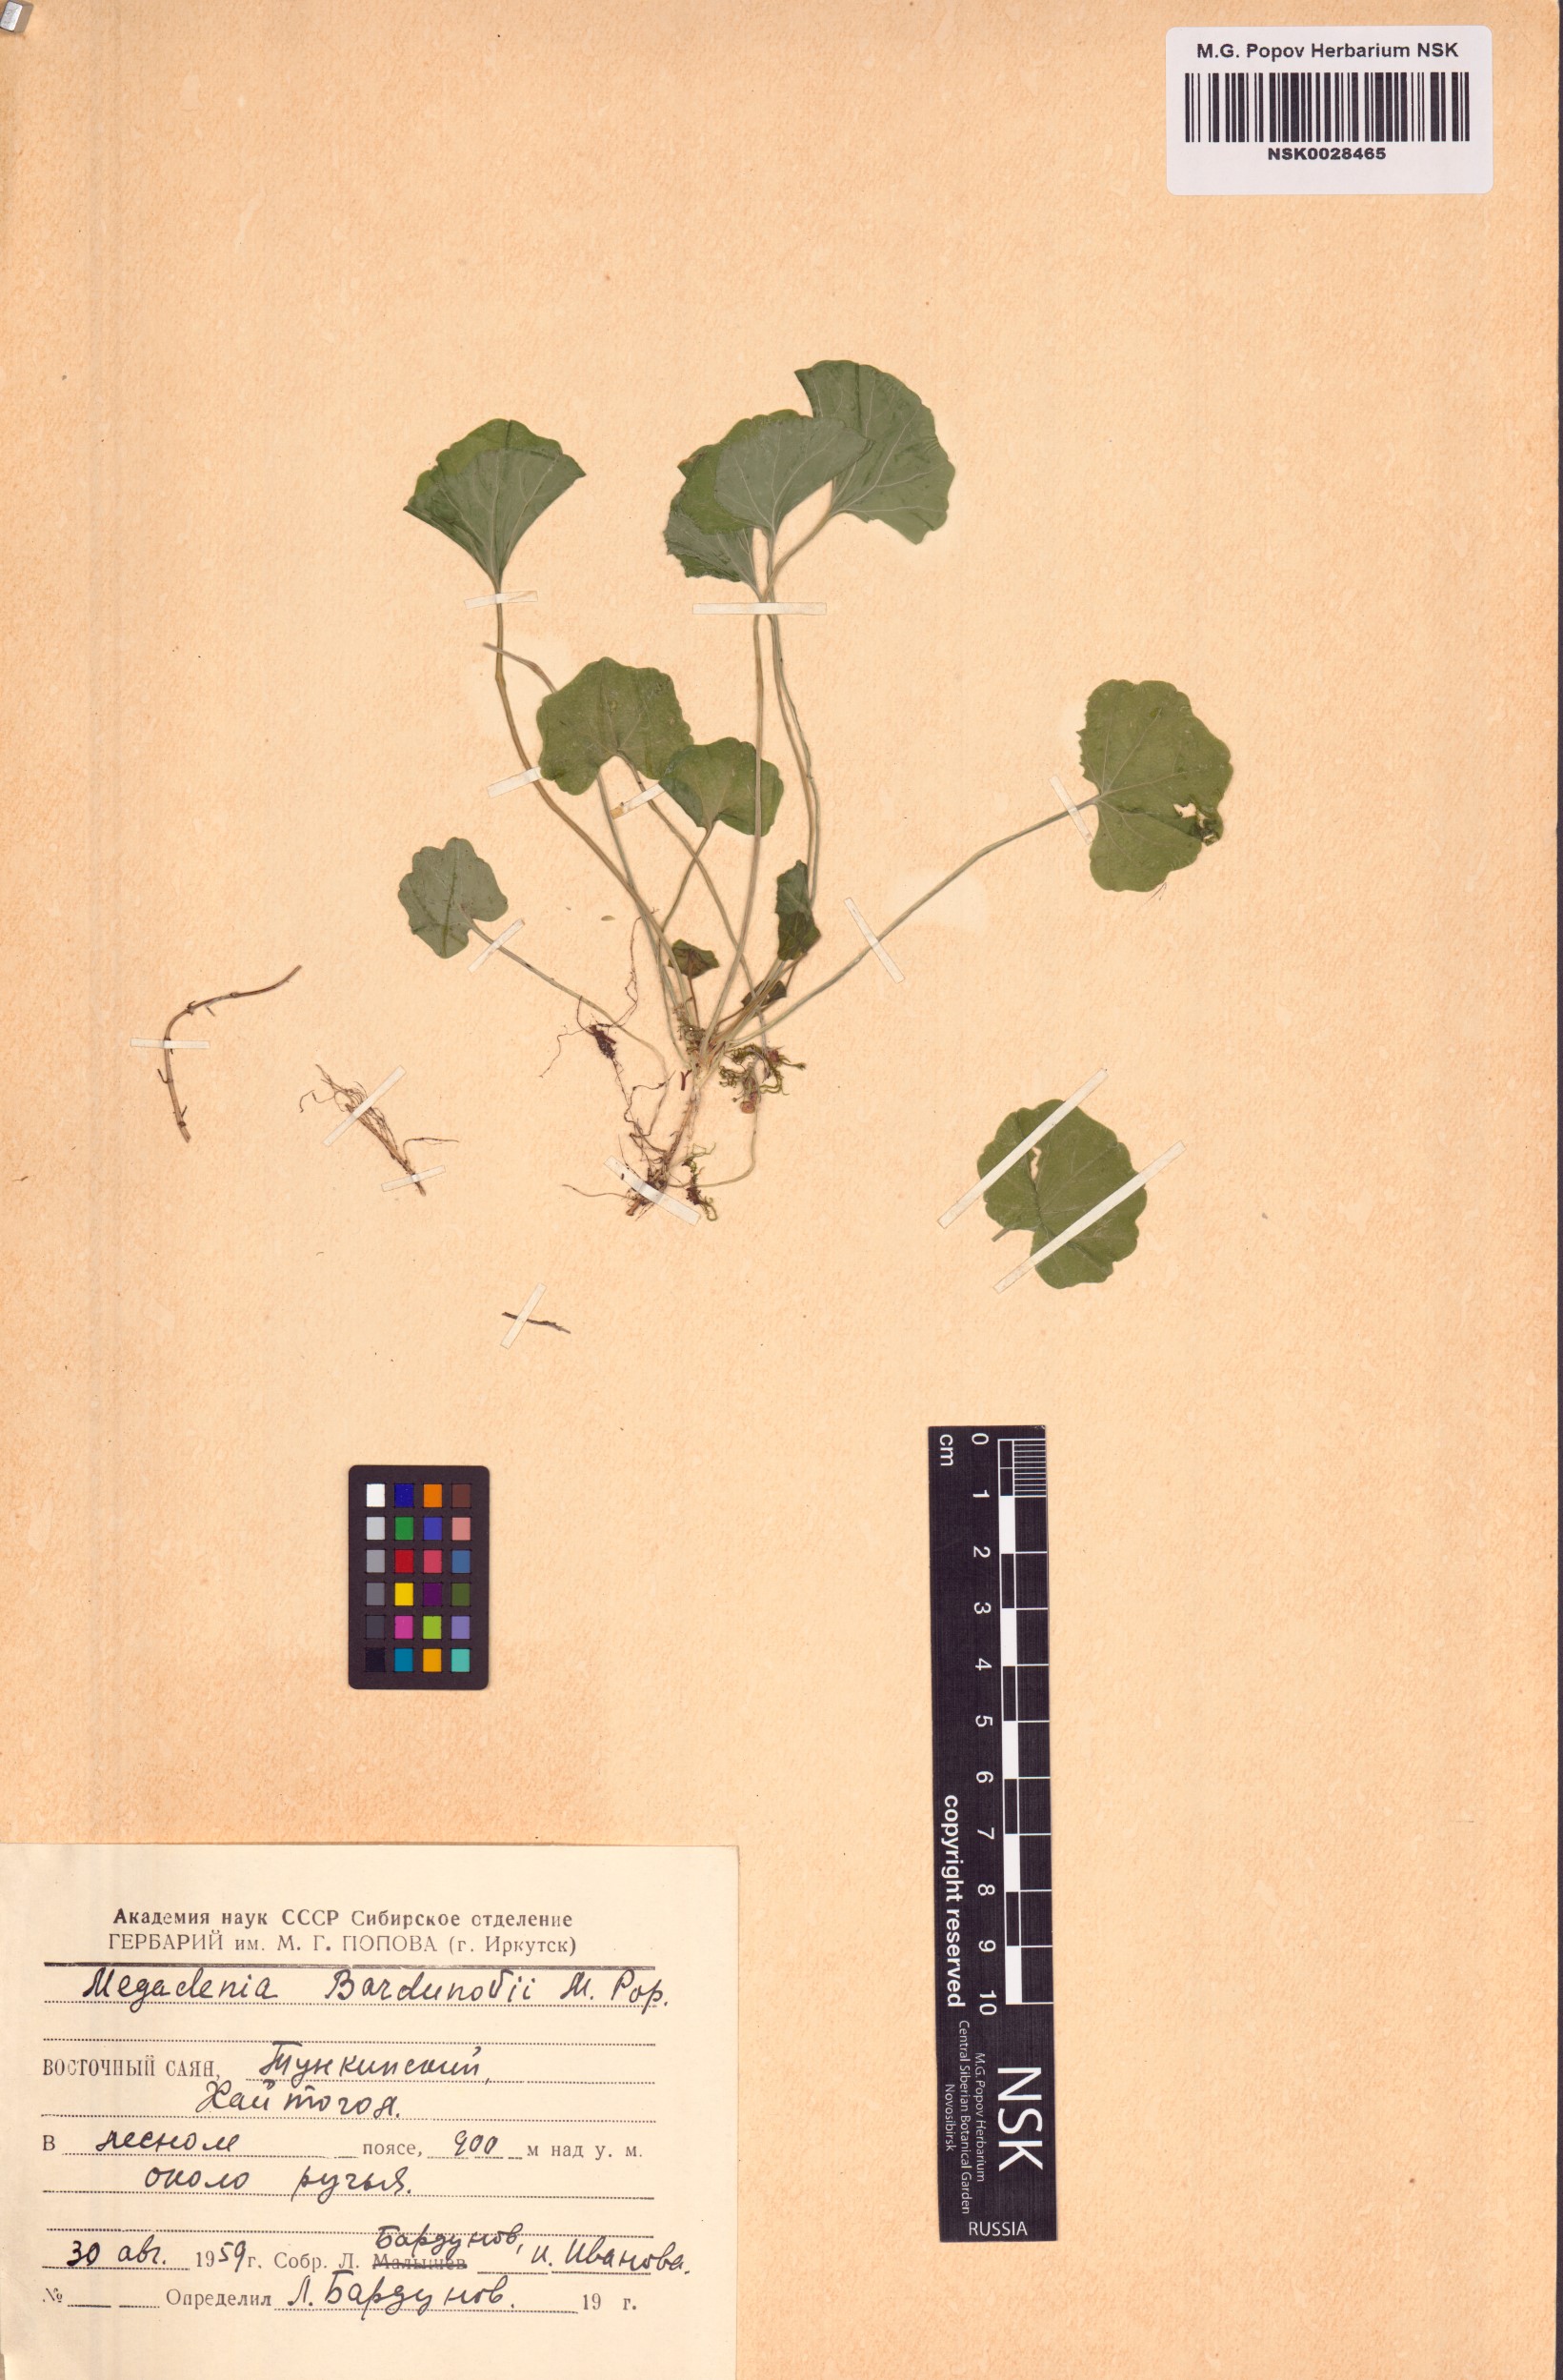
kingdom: Plantae
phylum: Tracheophyta
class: Magnoliopsida
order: Brassicales
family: Brassicaceae
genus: Megadenia
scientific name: Megadenia pygmaea
